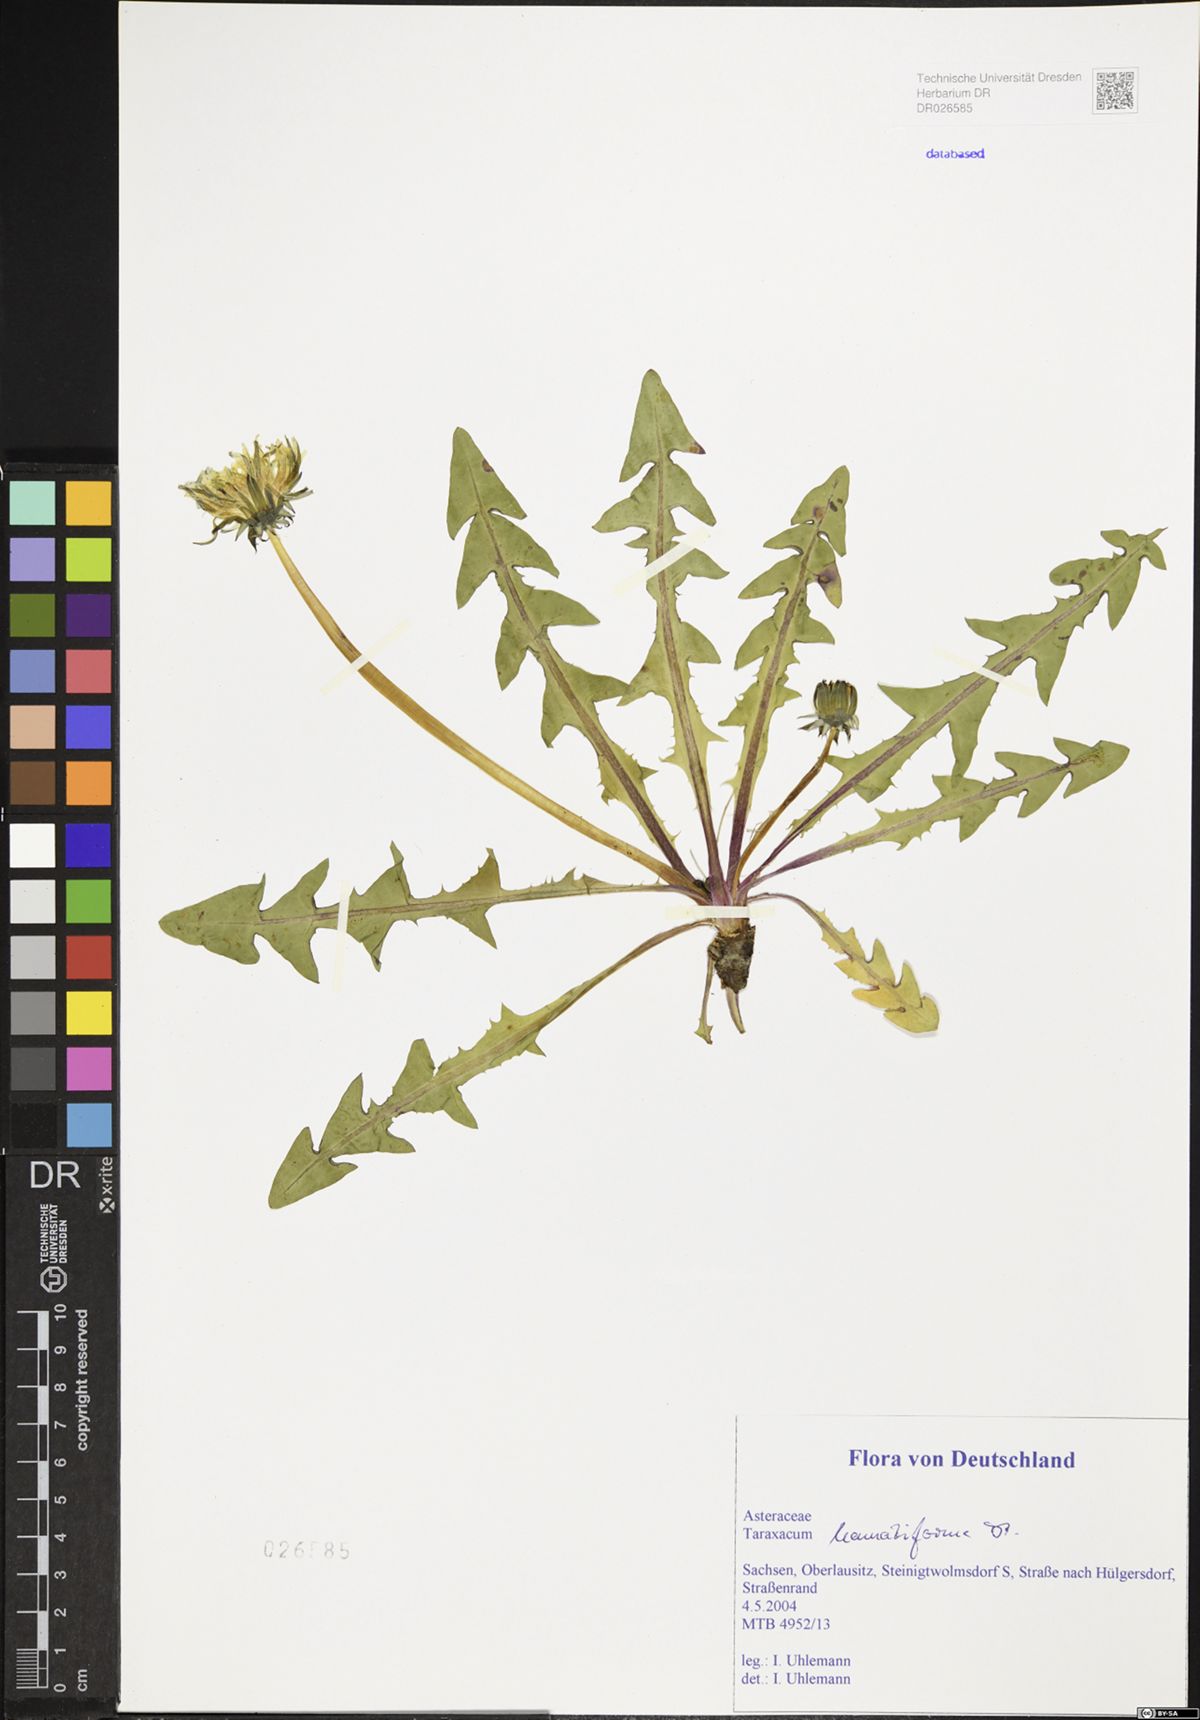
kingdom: Plantae
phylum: Tracheophyta
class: Magnoliopsida
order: Asterales
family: Asteraceae
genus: Taraxacum
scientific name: Taraxacum hamatiforme
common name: Asymmetrical hook-lobed dandelion
